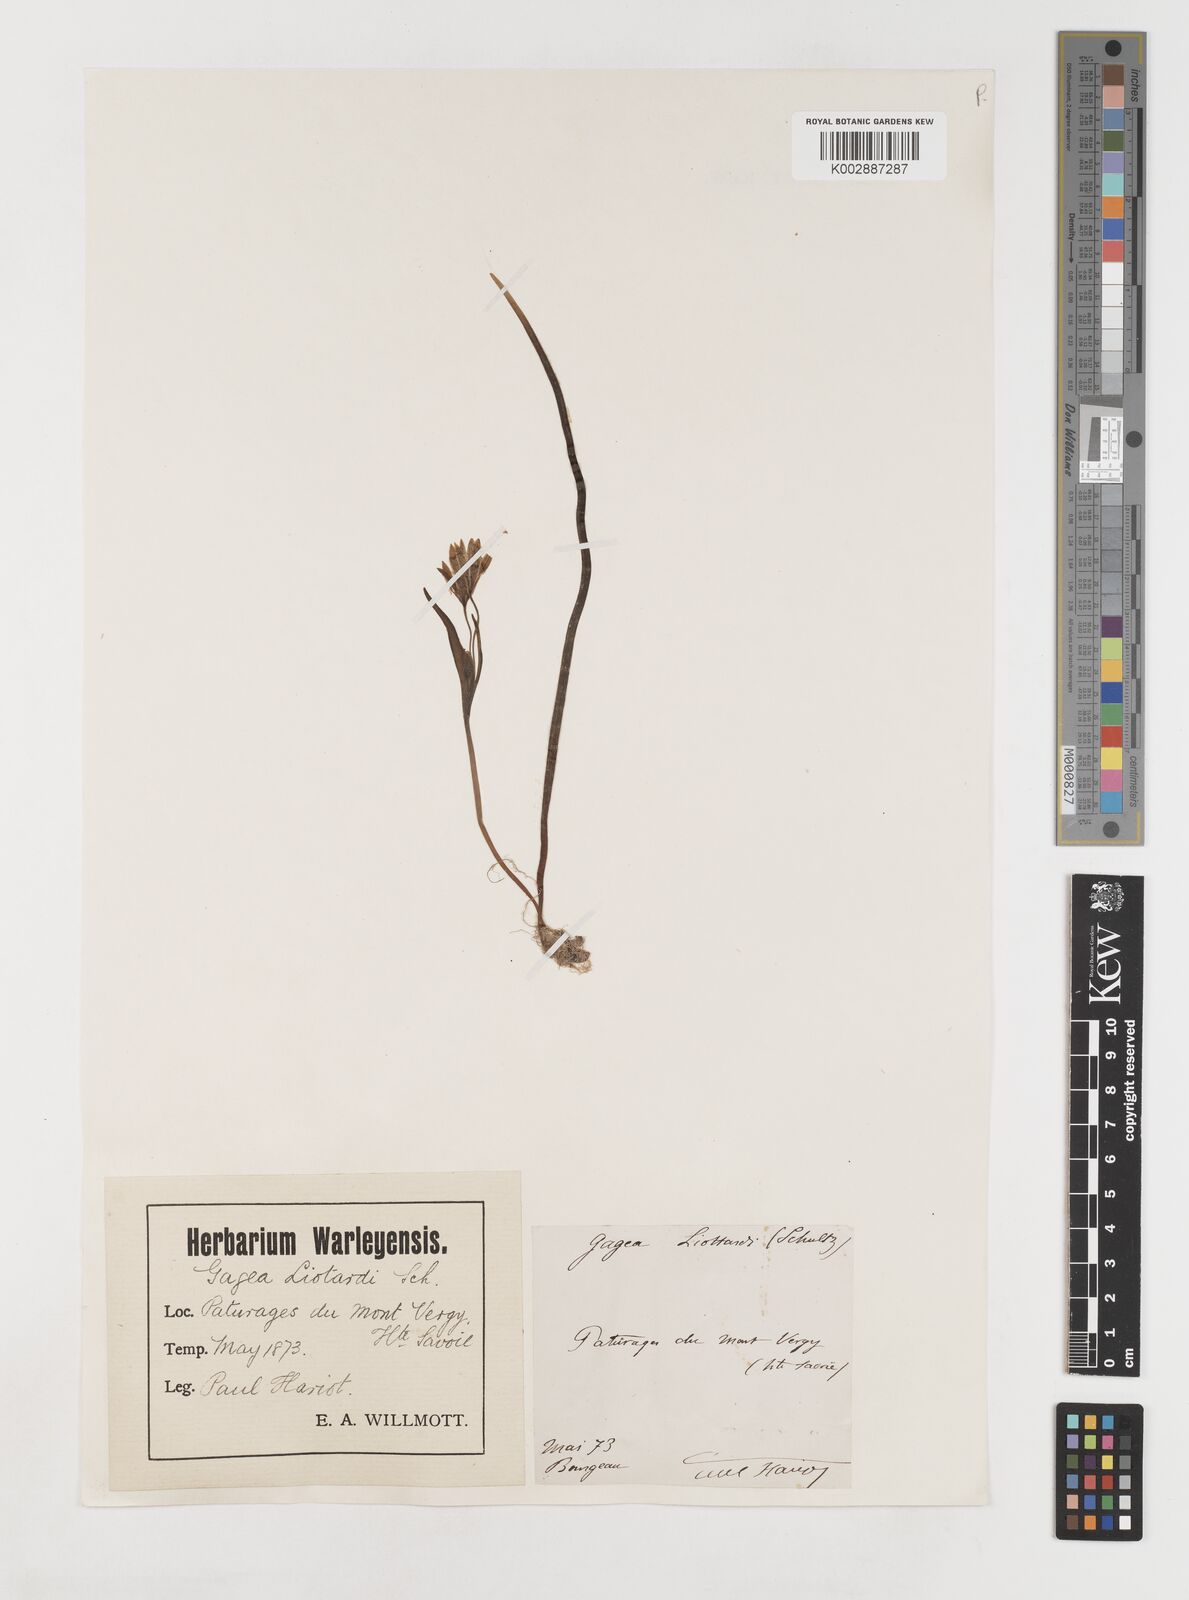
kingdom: Plantae
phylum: Tracheophyta
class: Liliopsida
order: Liliales
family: Liliaceae
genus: Gagea
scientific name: Gagea bohemica
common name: Early star-of-bethlehem
